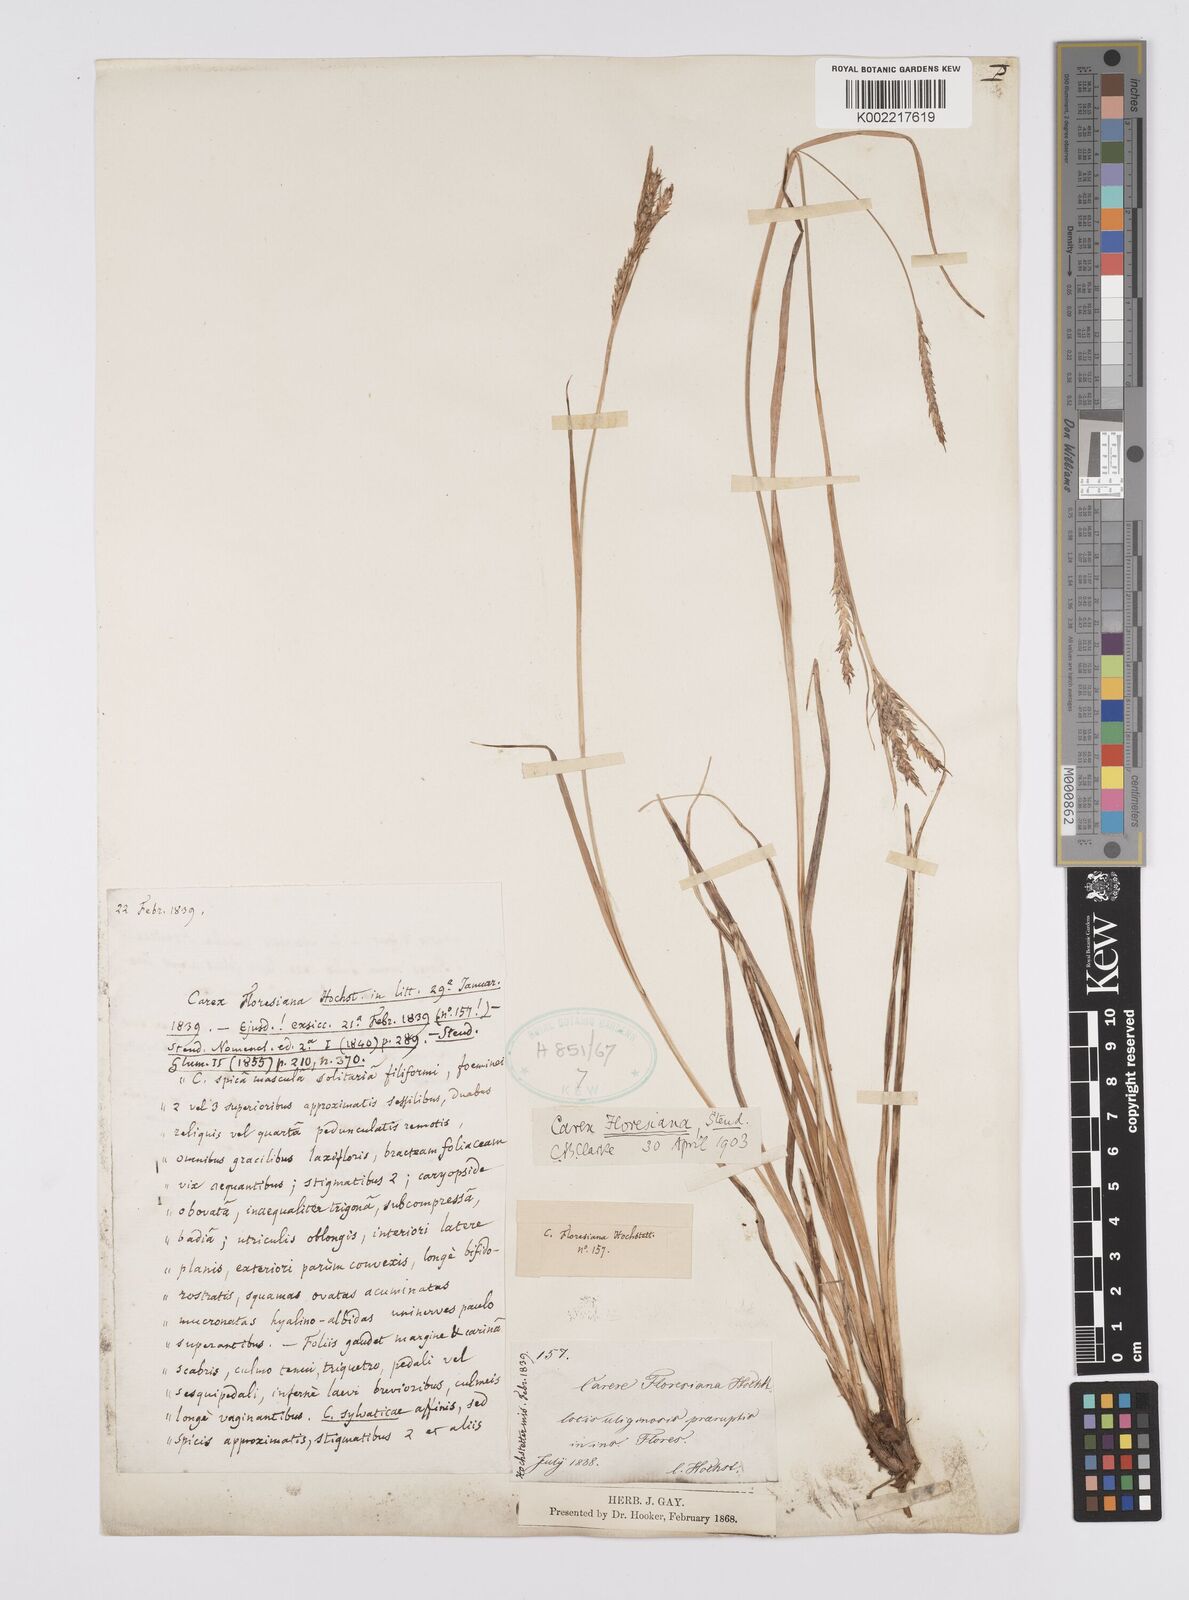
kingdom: Plantae
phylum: Tracheophyta
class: Liliopsida
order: Poales
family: Cyperaceae
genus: Carex
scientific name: Carex vulcani
